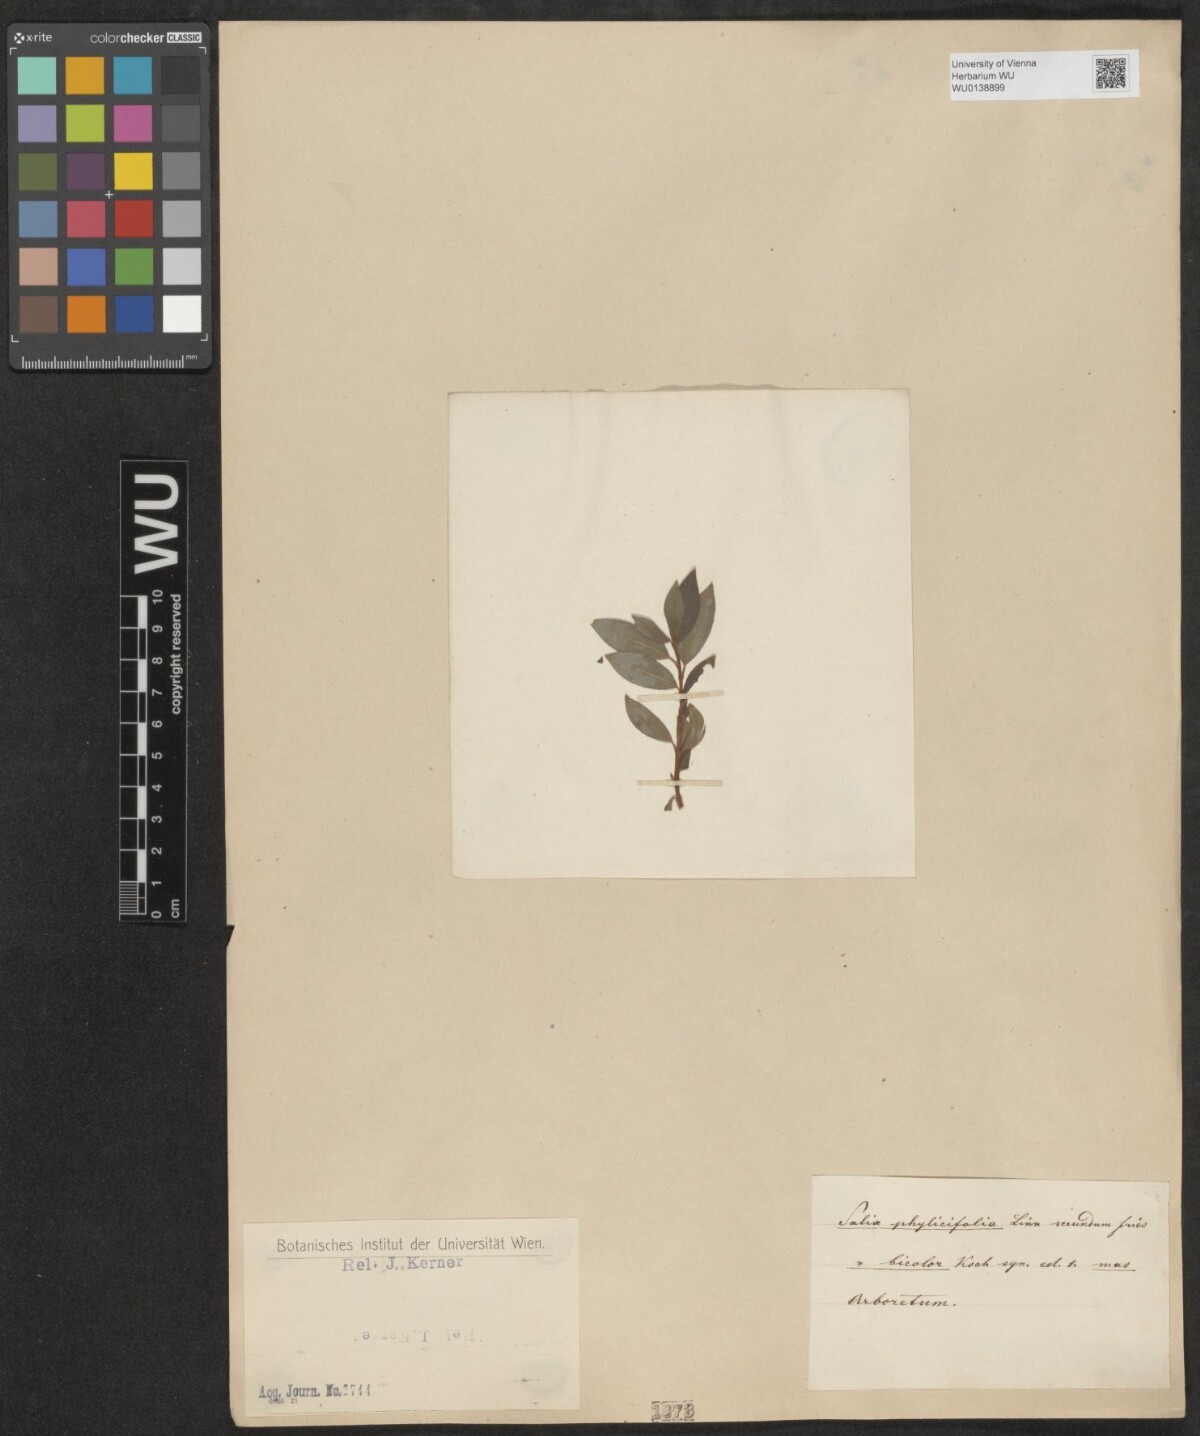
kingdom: Plantae
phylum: Tracheophyta
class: Magnoliopsida
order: Malpighiales
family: Salicaceae
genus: Salix
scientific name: Salix phylicifolia
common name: Tea-leaved willow
